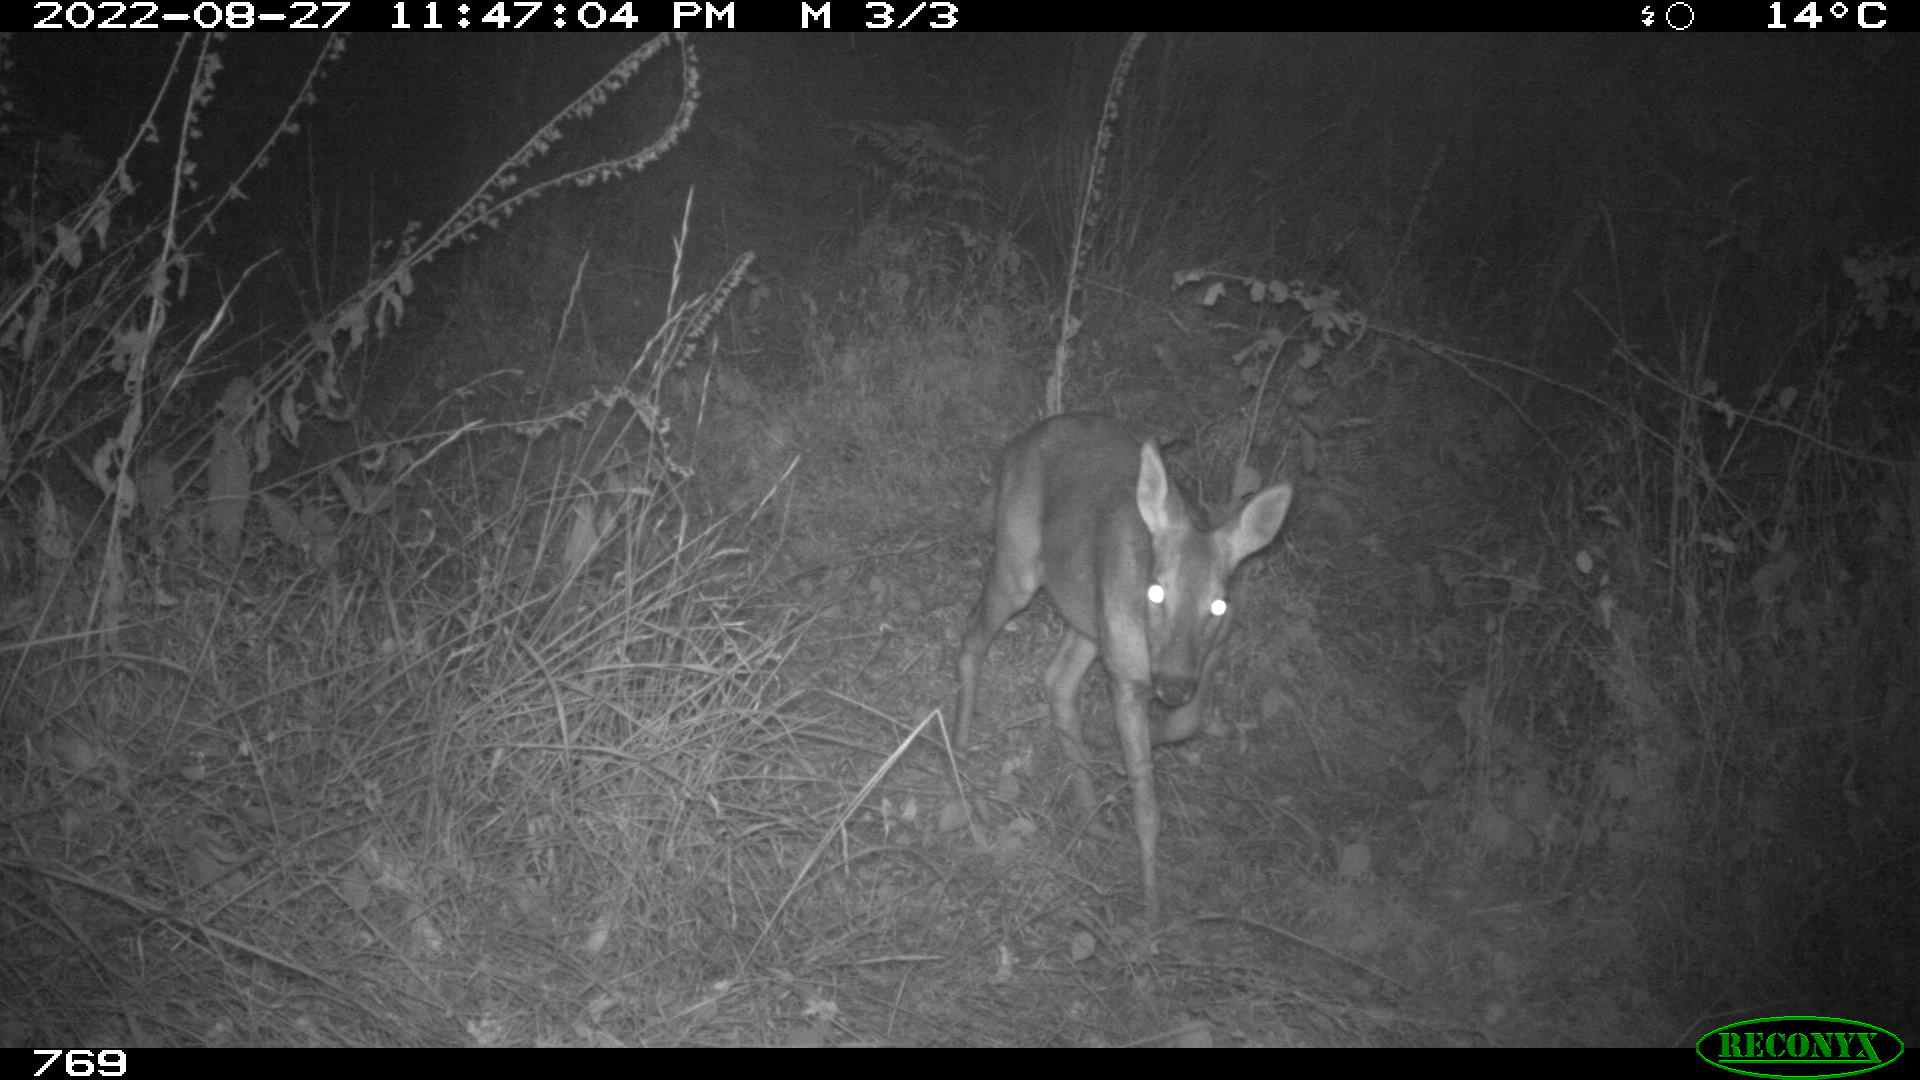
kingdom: Animalia
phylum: Chordata
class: Mammalia
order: Artiodactyla
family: Cervidae
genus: Capreolus
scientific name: Capreolus capreolus
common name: Western roe deer
